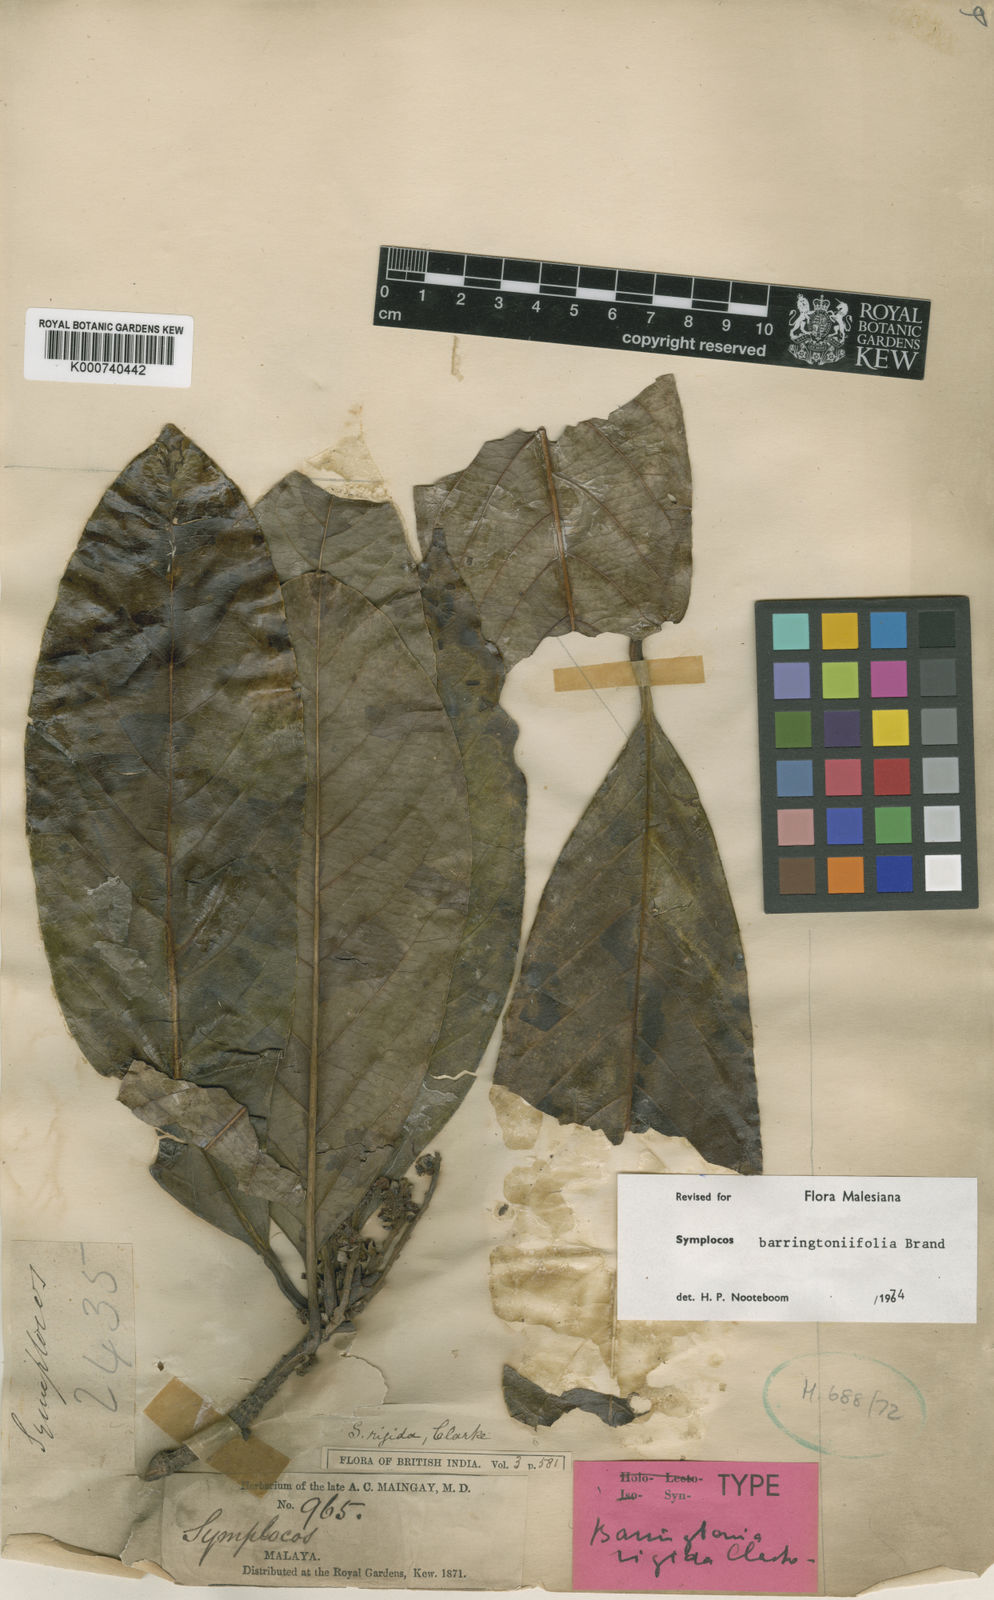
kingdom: Plantae
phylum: Tracheophyta
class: Magnoliopsida
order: Ericales
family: Symplocaceae
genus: Symplocos
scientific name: Symplocos barringtoniifolia
